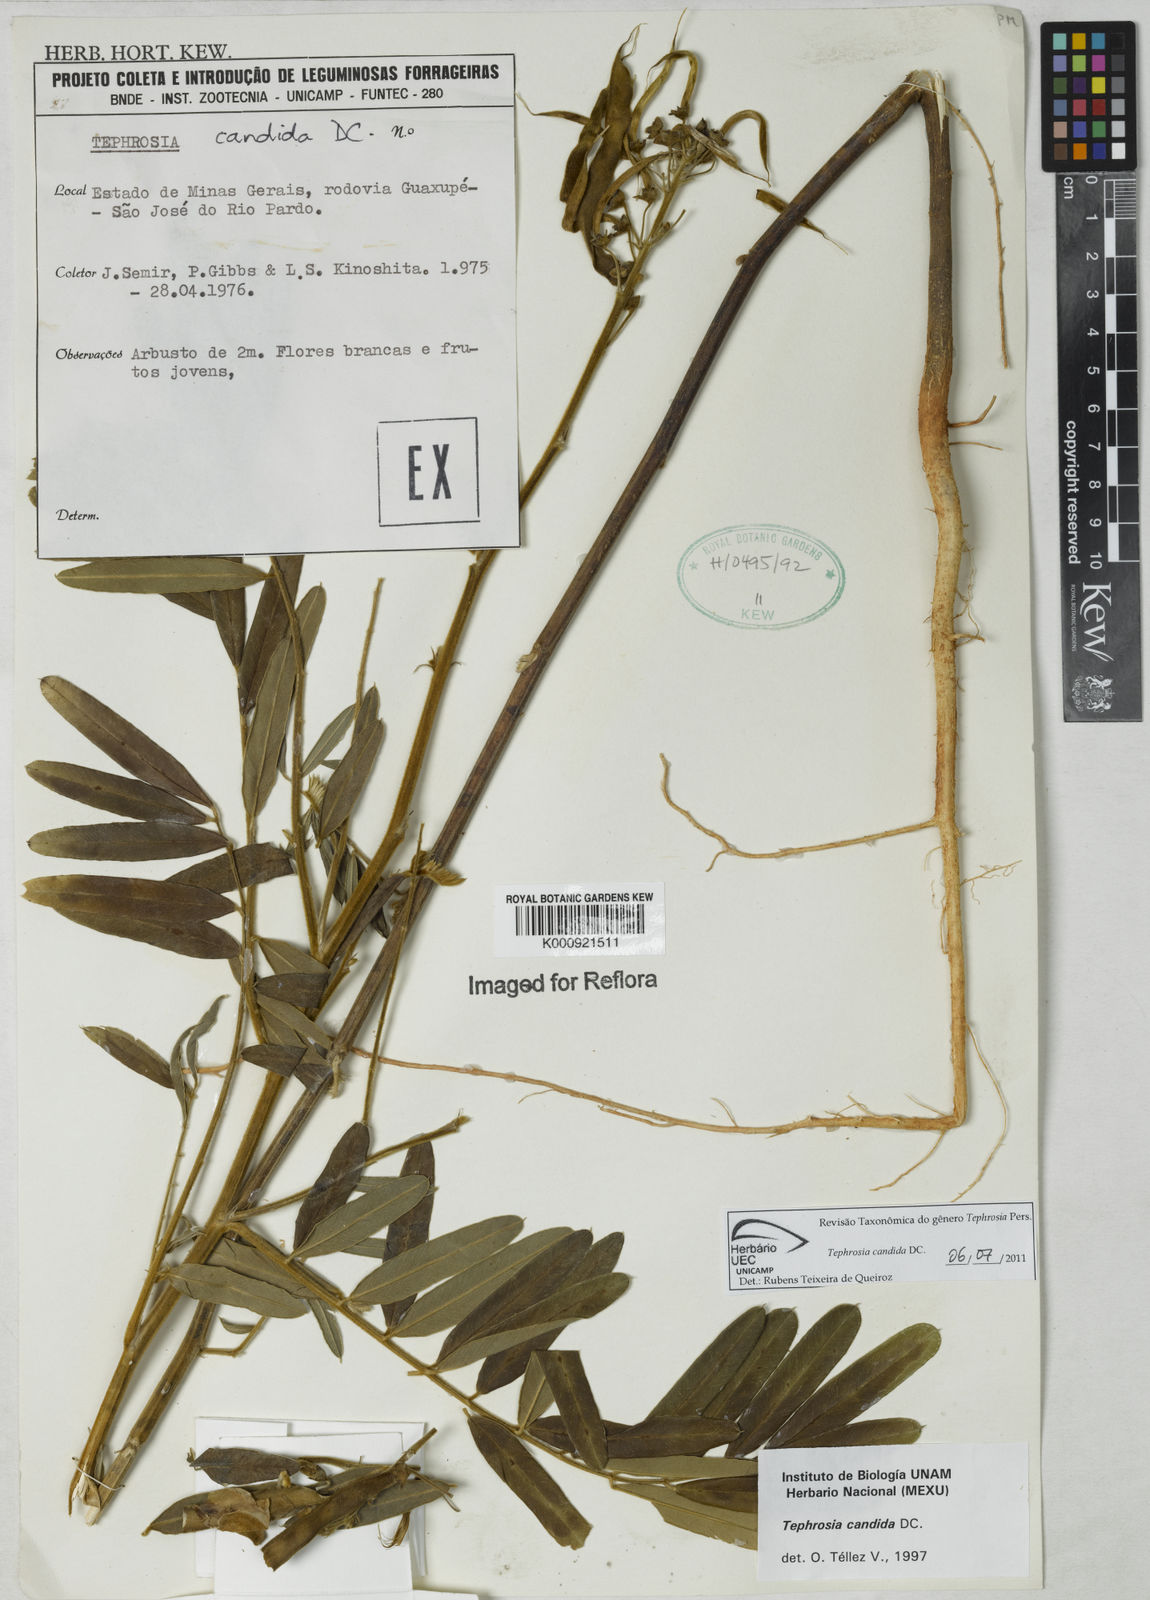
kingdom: Plantae
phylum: Tracheophyta
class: Magnoliopsida
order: Fabales
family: Fabaceae
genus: Tephrosia
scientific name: Tephrosia candida
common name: White tephrosia
